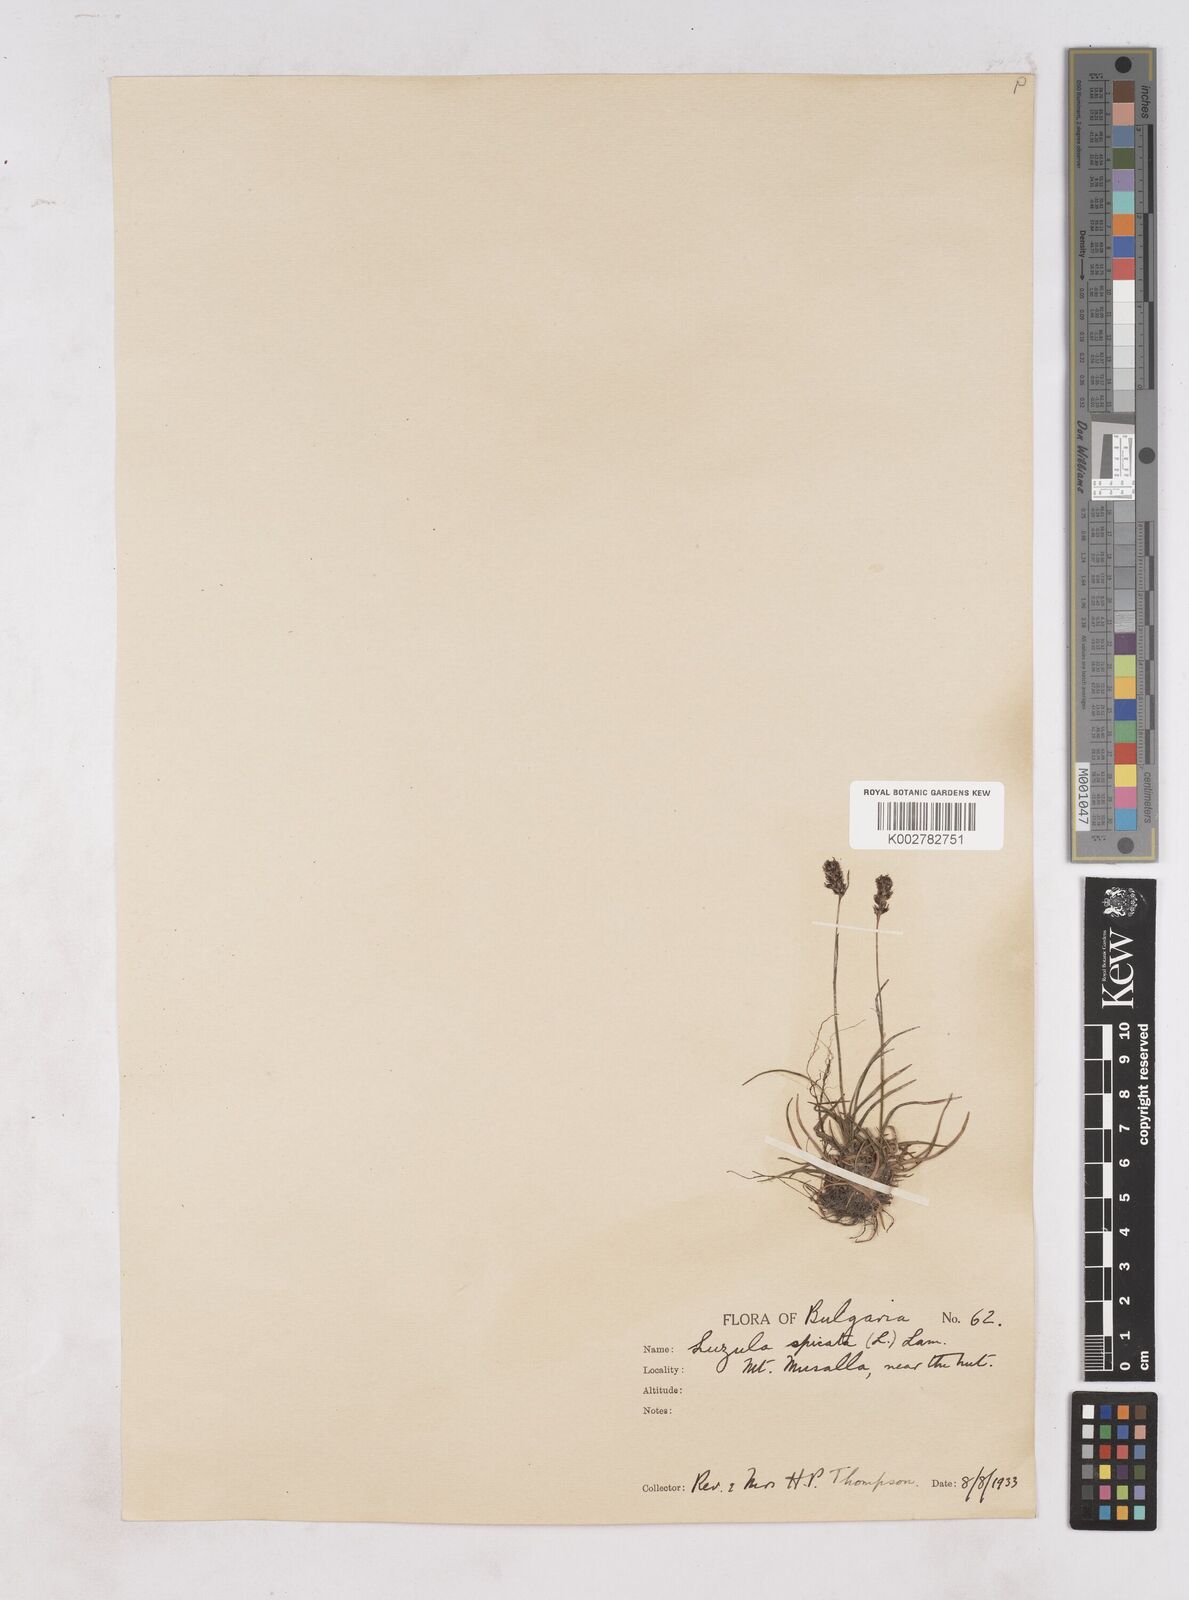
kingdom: Plantae
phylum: Tracheophyta
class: Liliopsida
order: Poales
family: Juncaceae
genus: Luzula
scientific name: Luzula spicata
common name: Spiked wood-rush
